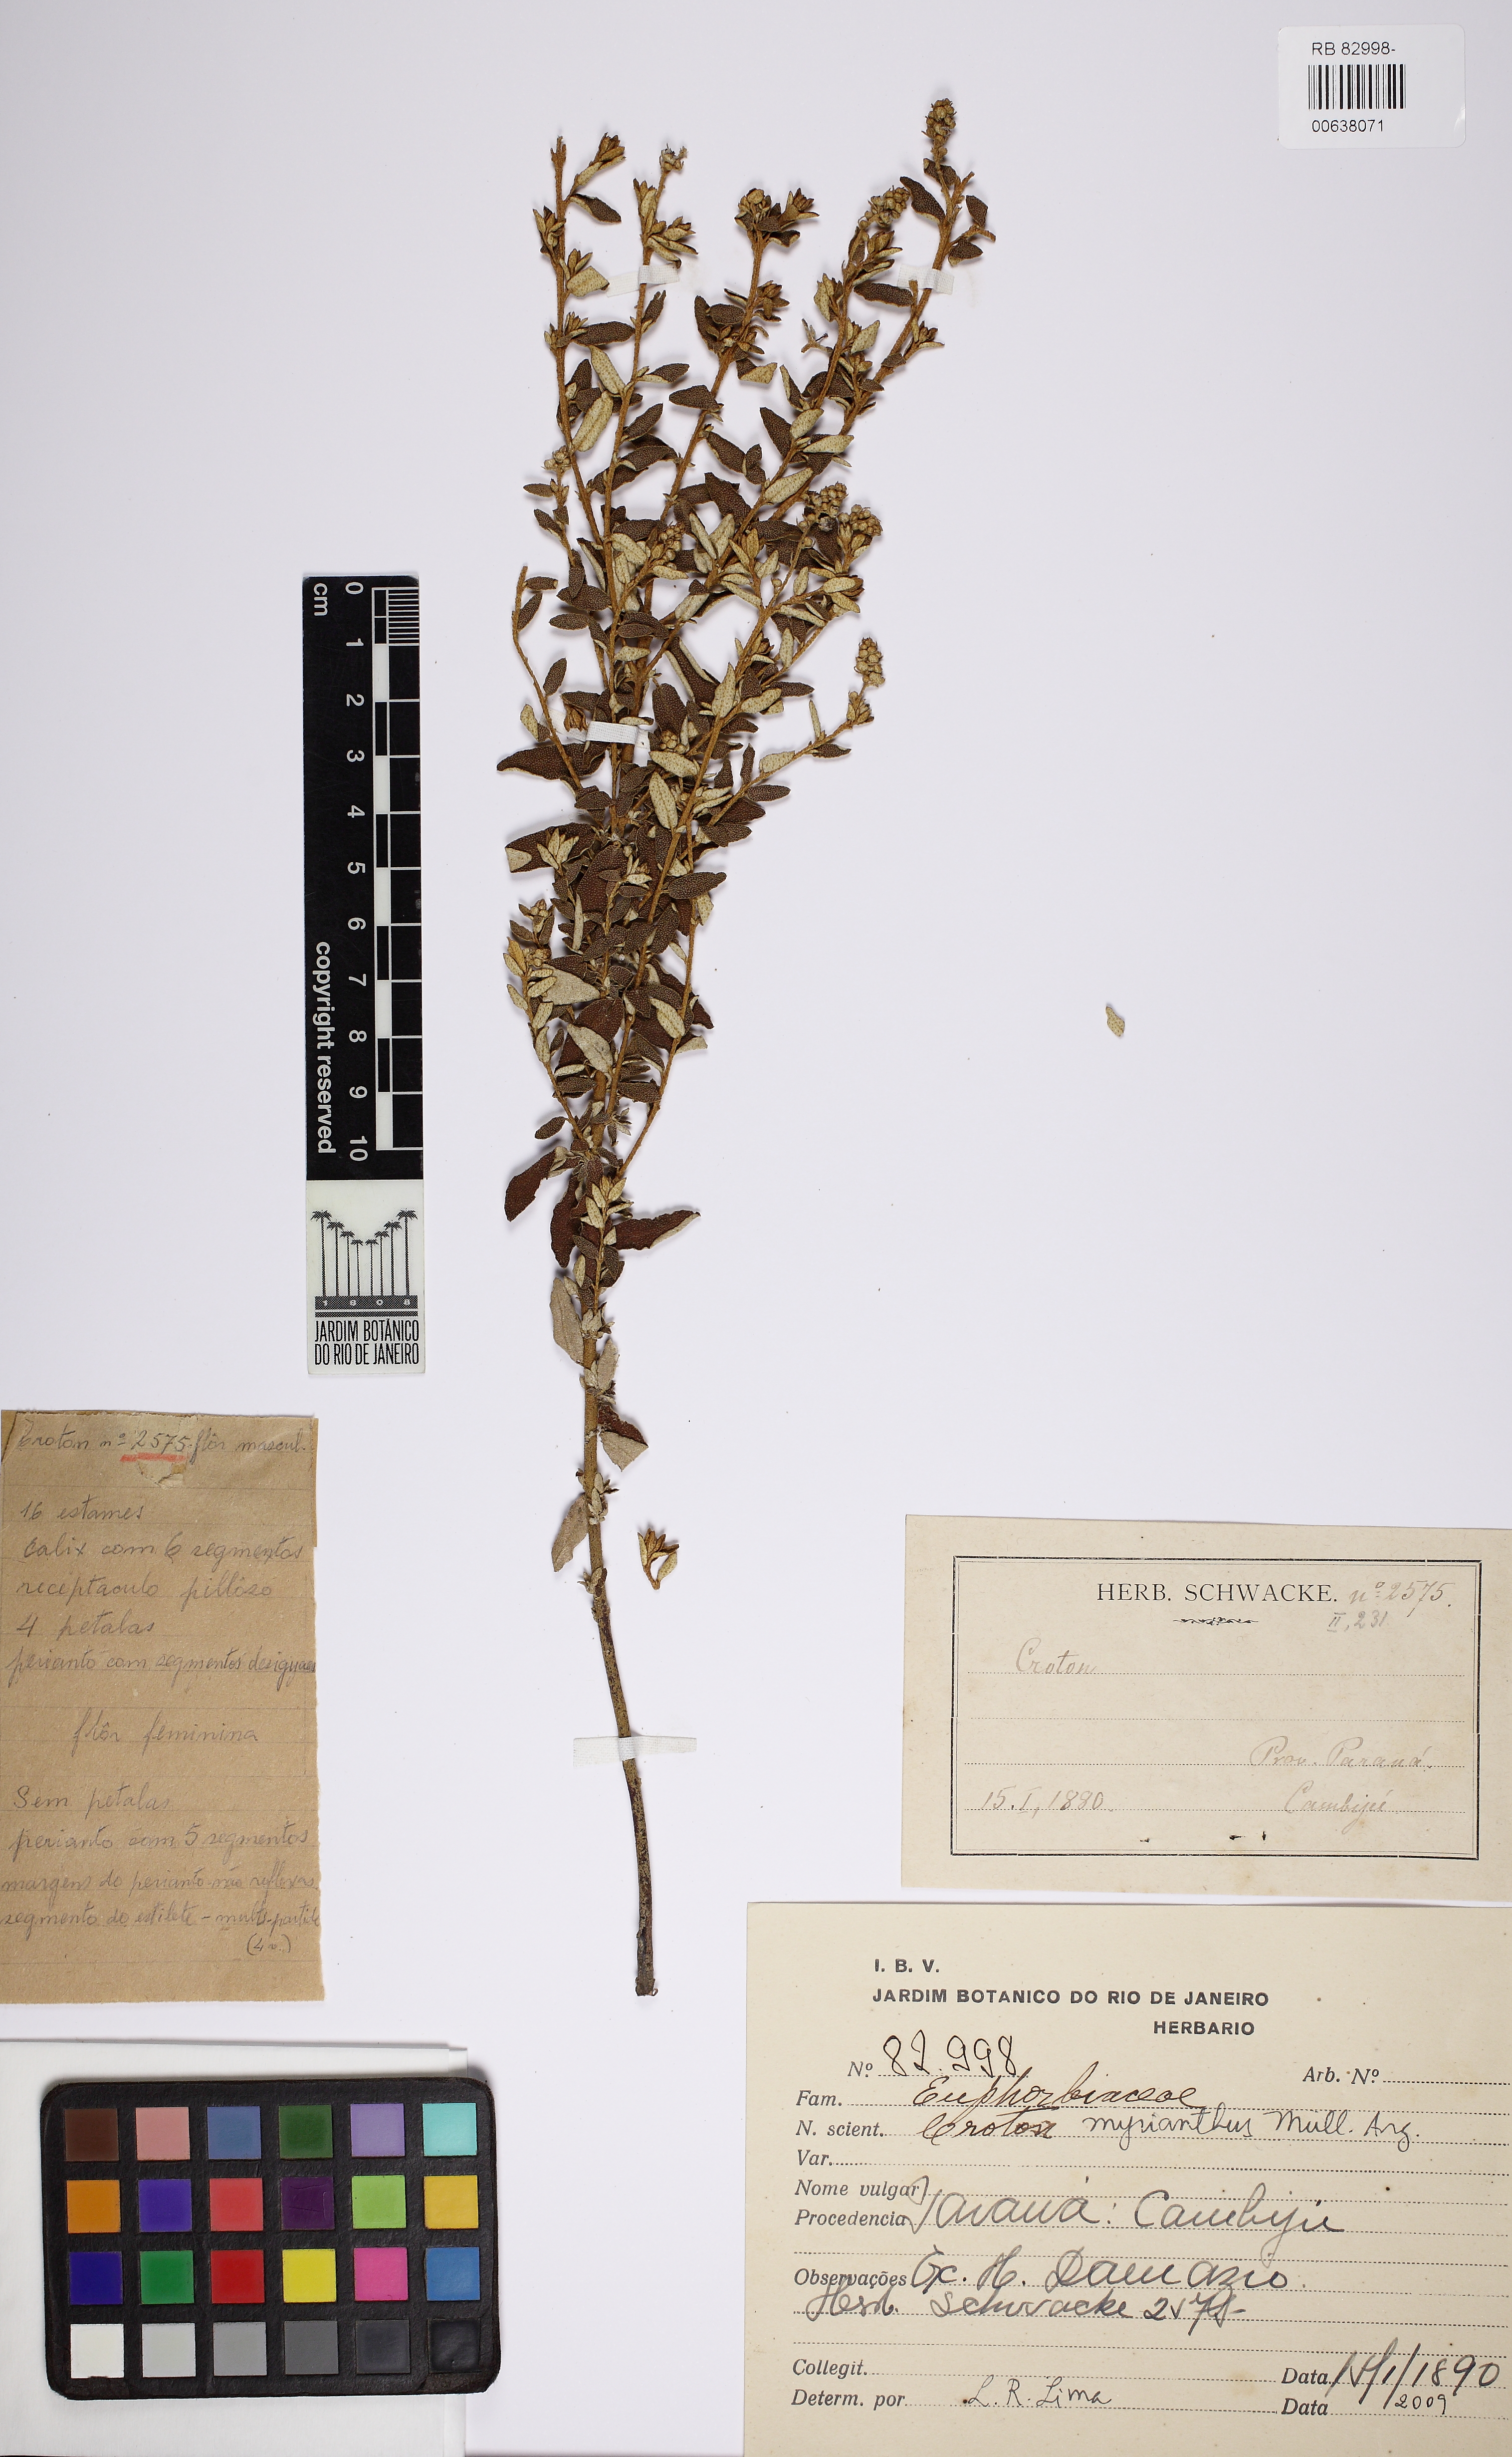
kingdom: Plantae
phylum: Tracheophyta
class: Magnoliopsida
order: Malpighiales
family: Euphorbiaceae
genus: Croton
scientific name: Croton serpyllifolius
